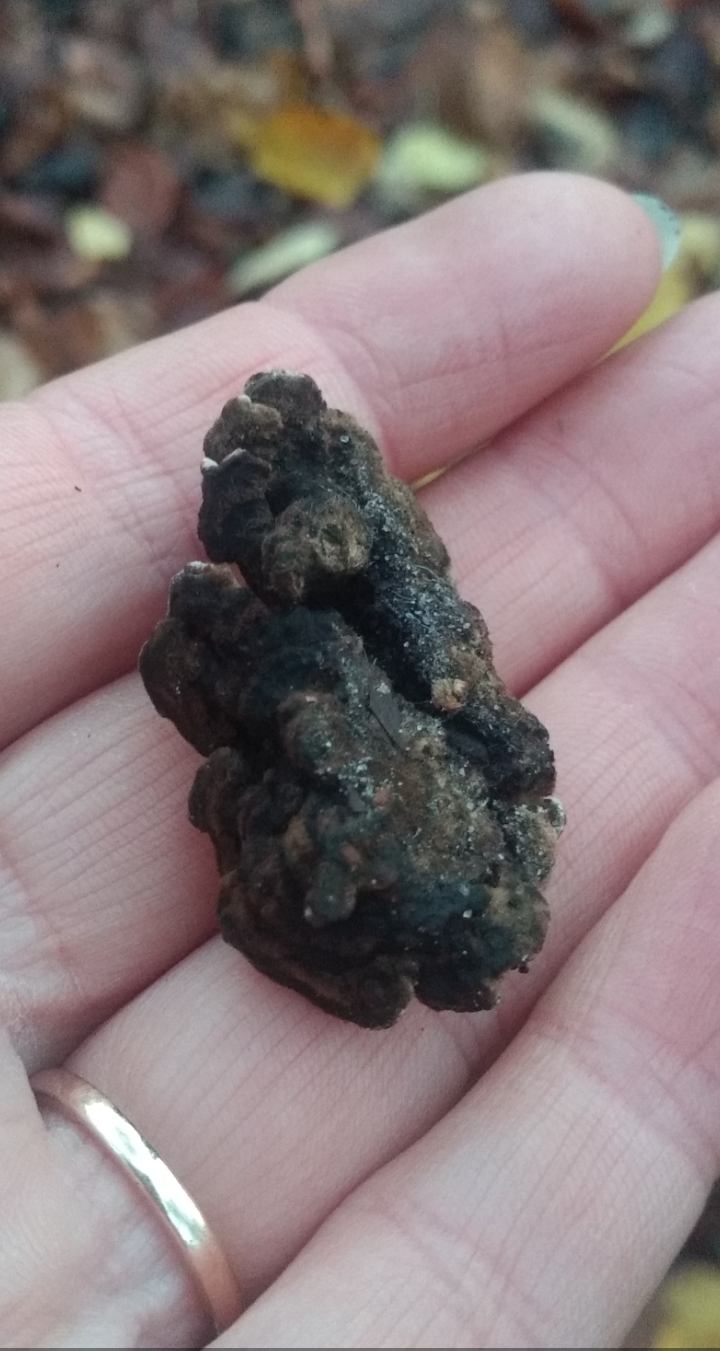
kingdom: Fungi
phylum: Basidiomycota
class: Agaricomycetes
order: Polyporales
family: Polyporaceae
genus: Podofomes
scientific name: Podofomes mollis
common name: blød begporesvamp
